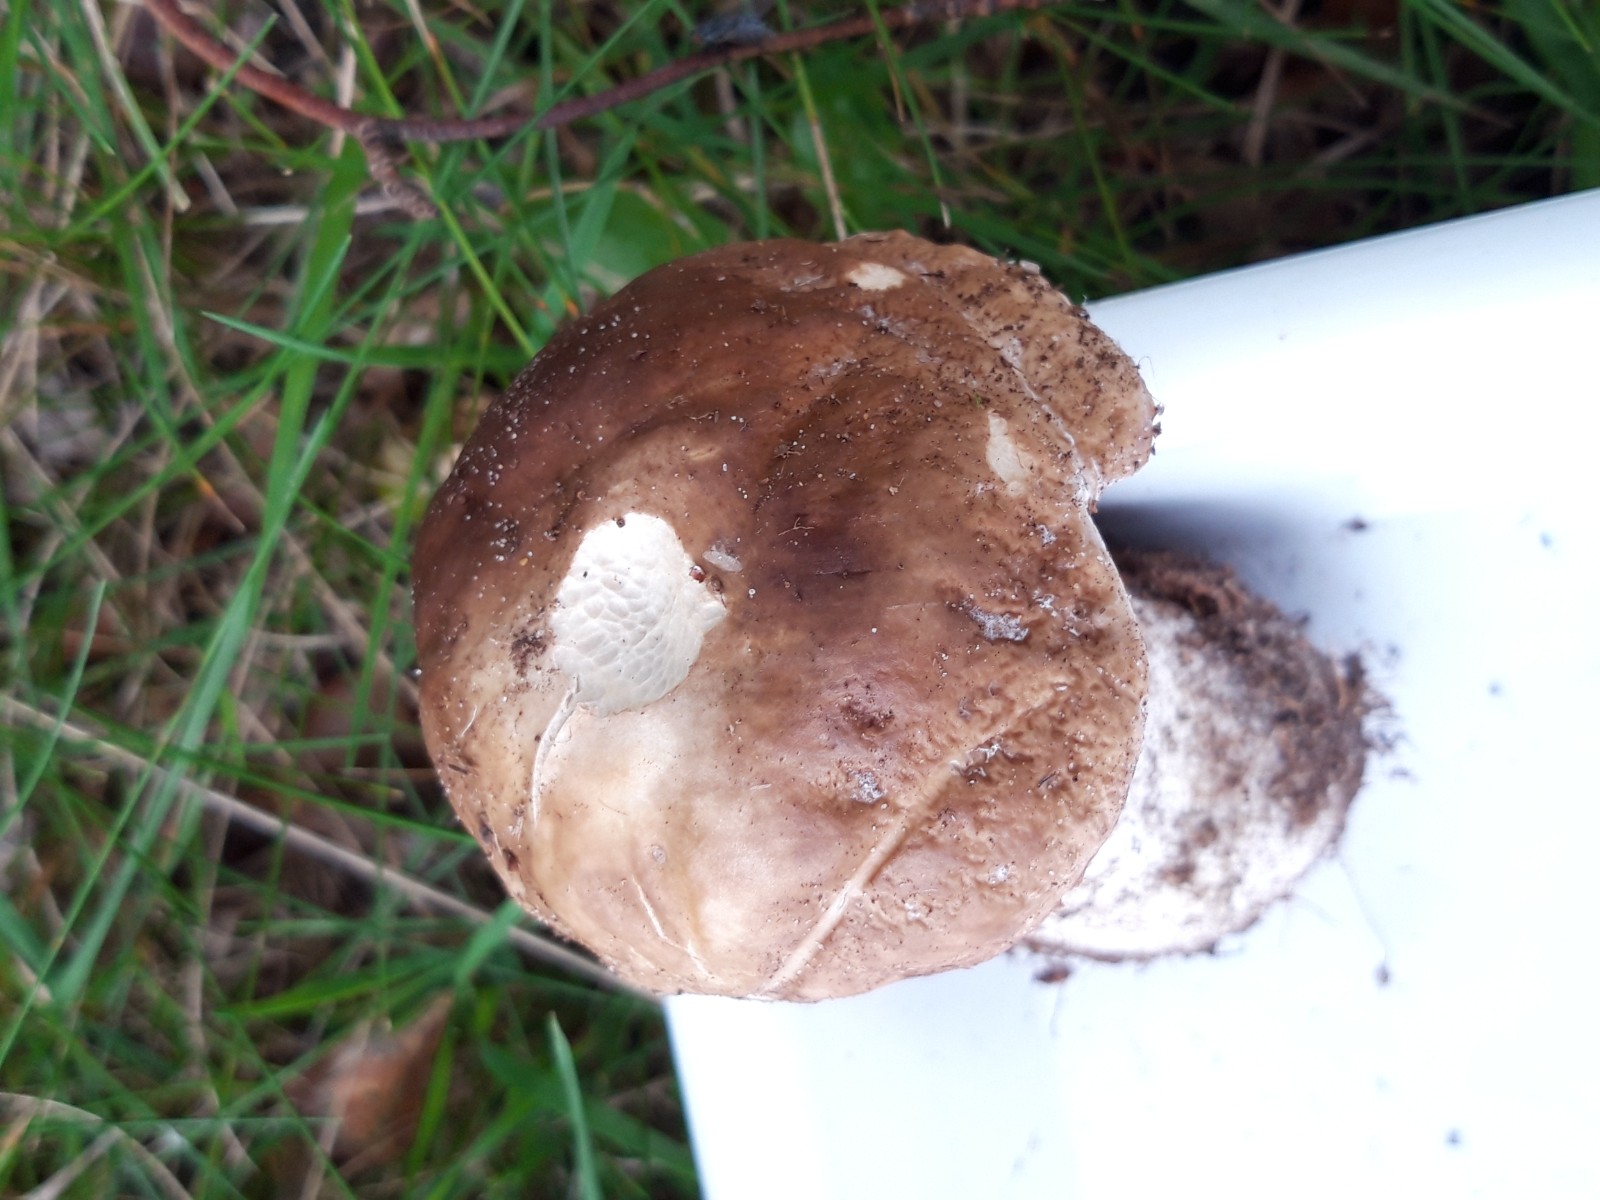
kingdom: Fungi
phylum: Basidiomycota
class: Agaricomycetes
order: Boletales
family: Boletaceae
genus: Boletus
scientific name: Boletus edulis
